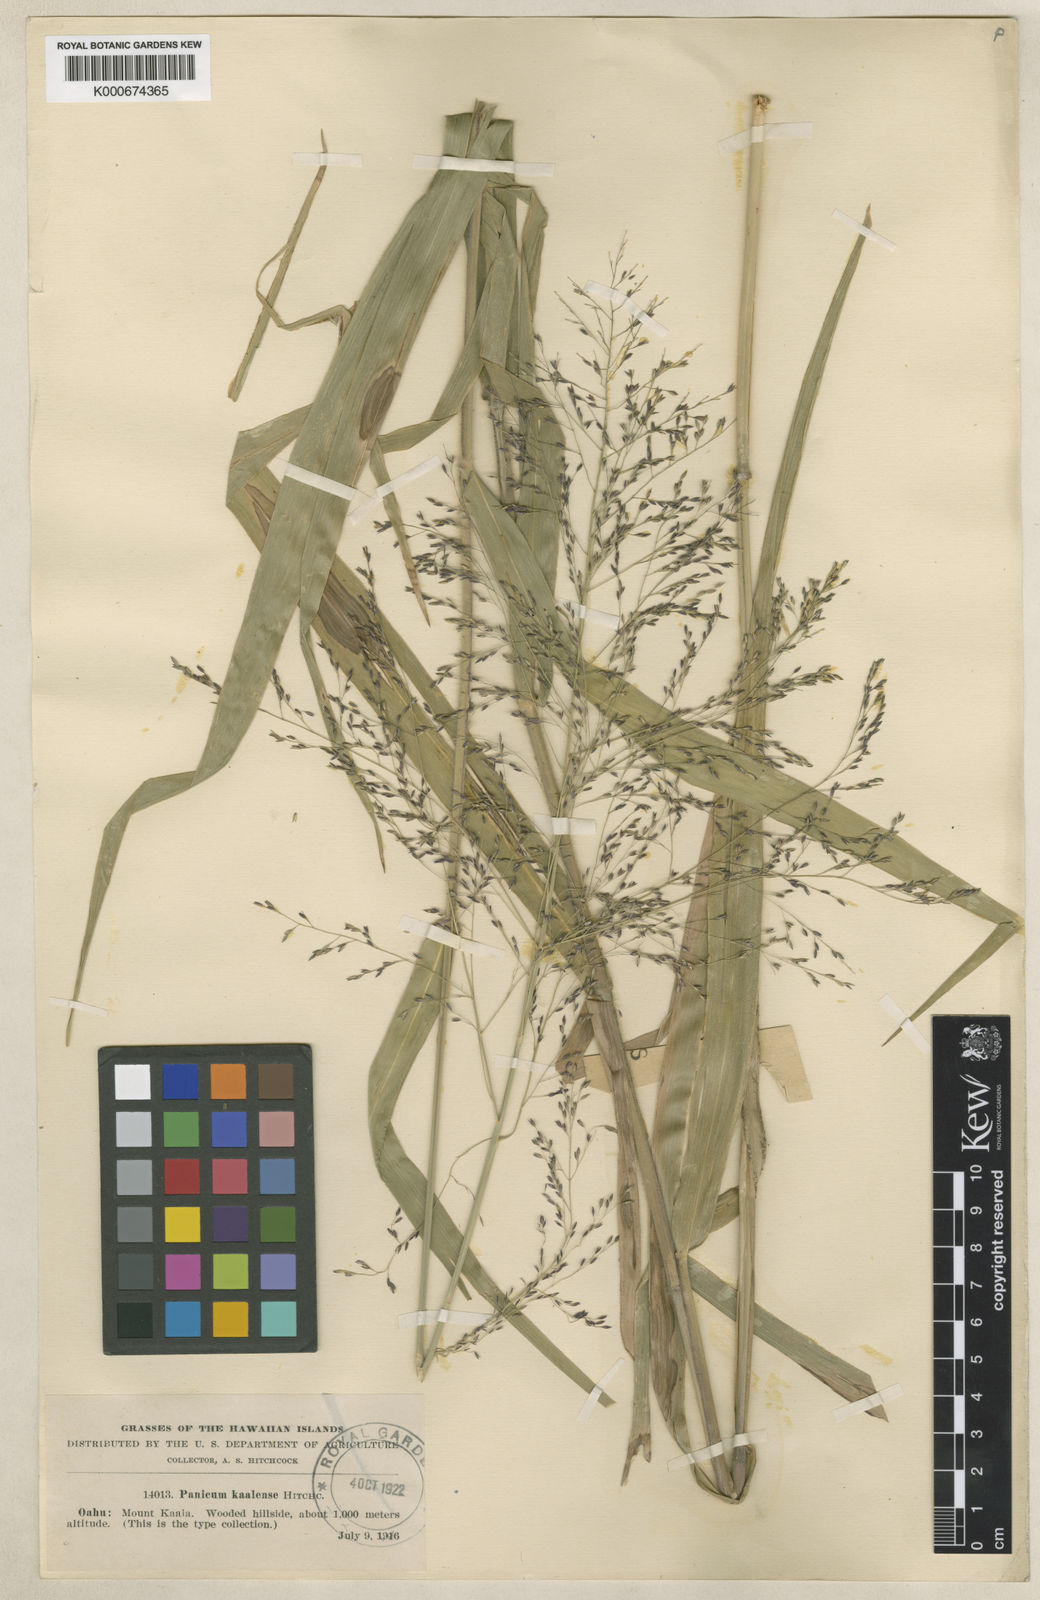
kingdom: Plantae
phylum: Tracheophyta
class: Liliopsida
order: Poales
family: Poaceae
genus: Panicum
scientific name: Panicum
